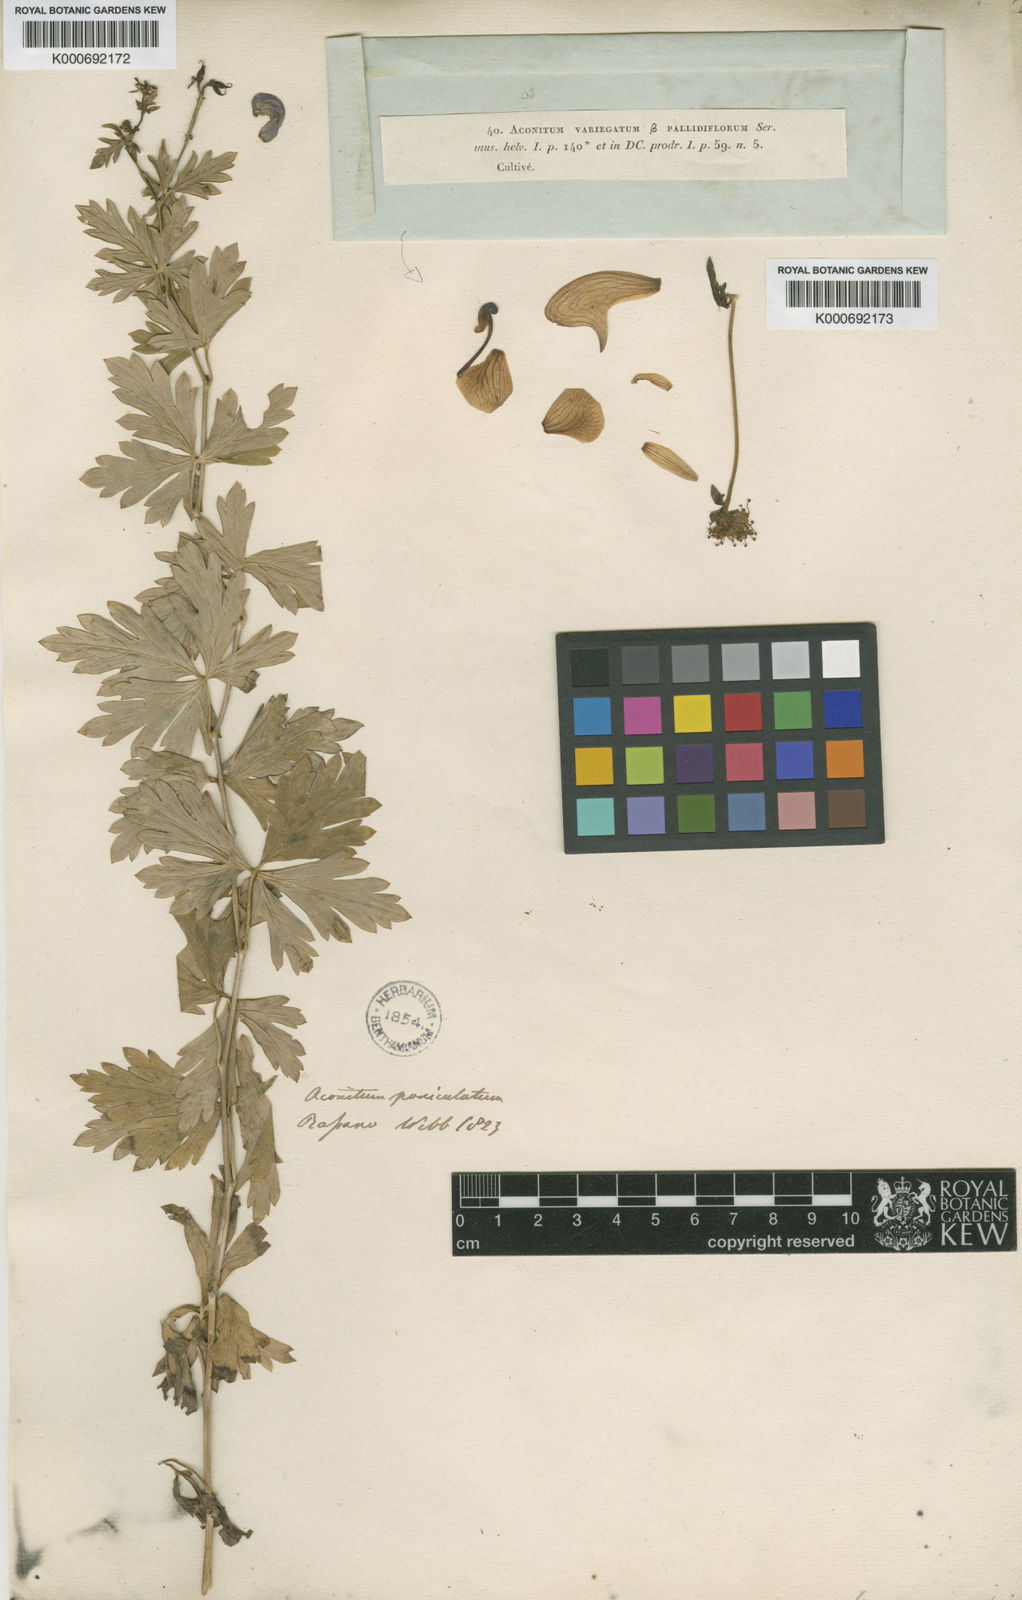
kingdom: Plantae
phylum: Tracheophyta
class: Magnoliopsida
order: Ranunculales
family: Ranunculaceae
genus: Aconitum
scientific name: Aconitum variegatum
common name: Manchurian monkshood
